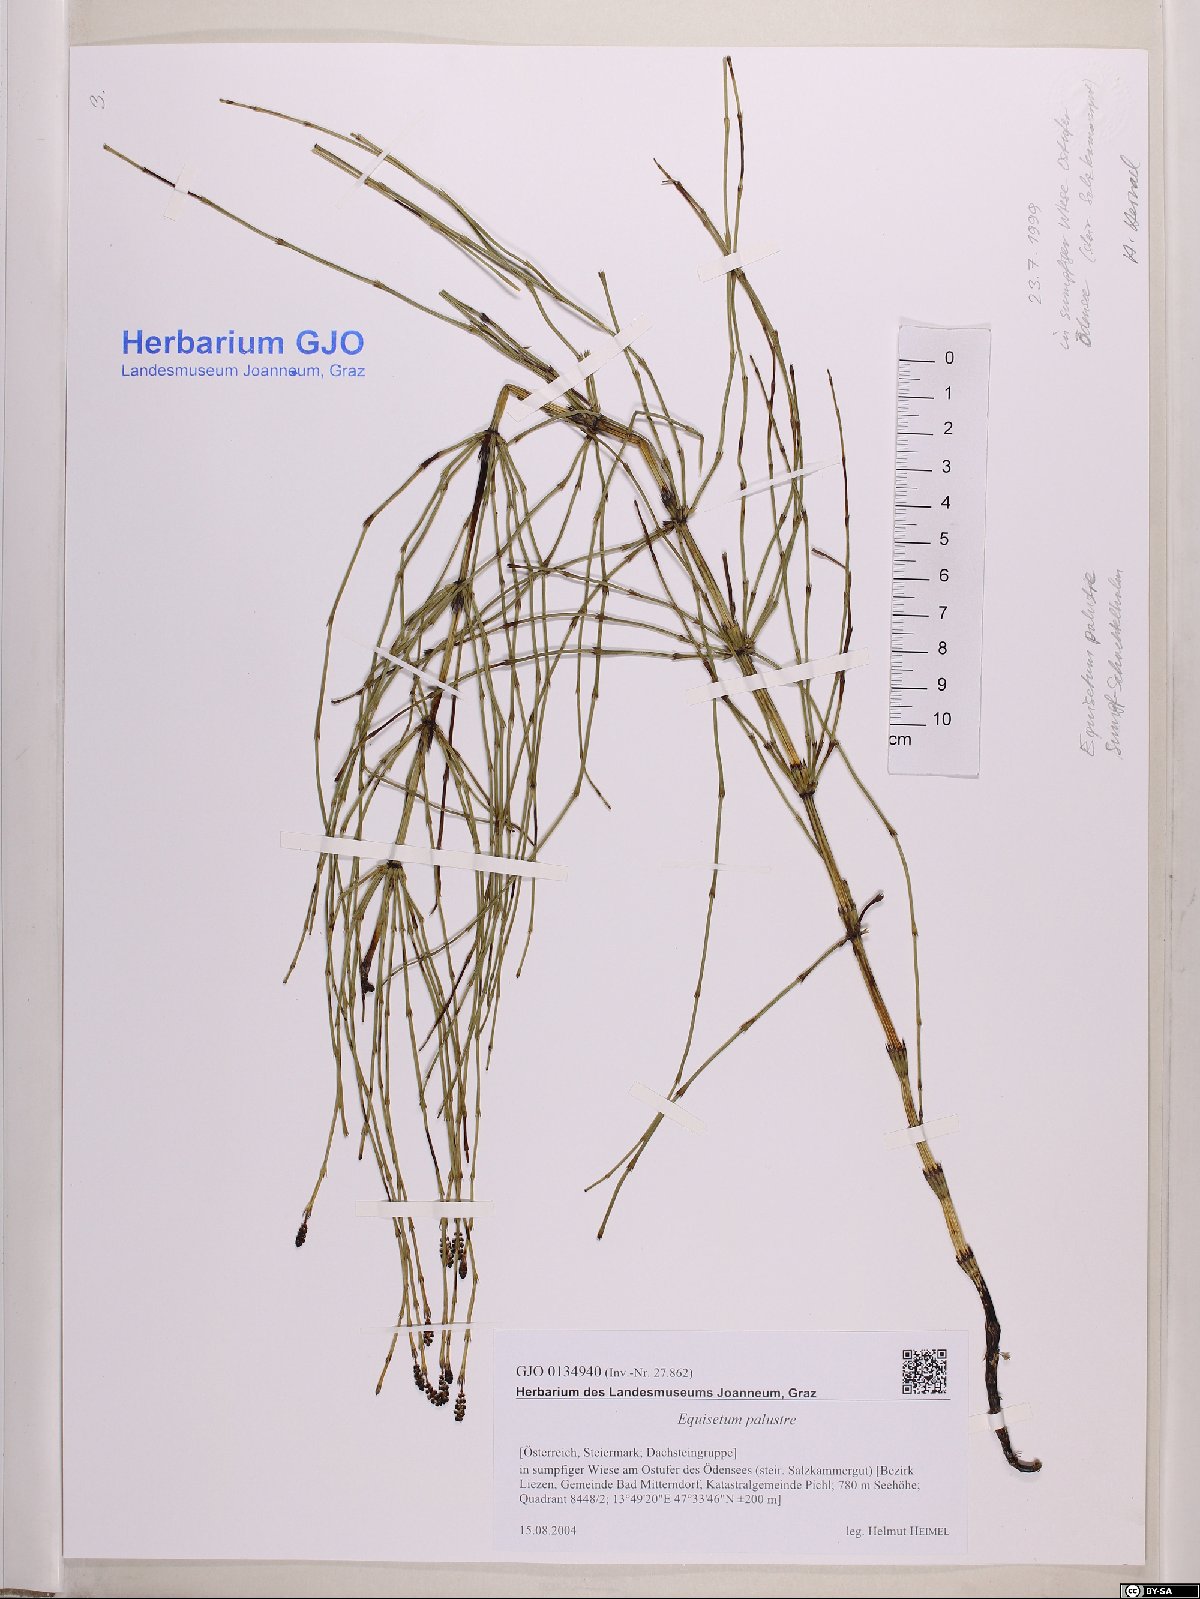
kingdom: Plantae
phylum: Tracheophyta
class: Polypodiopsida
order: Equisetales
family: Equisetaceae
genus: Equisetum
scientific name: Equisetum palustre
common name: Marsh horsetail
